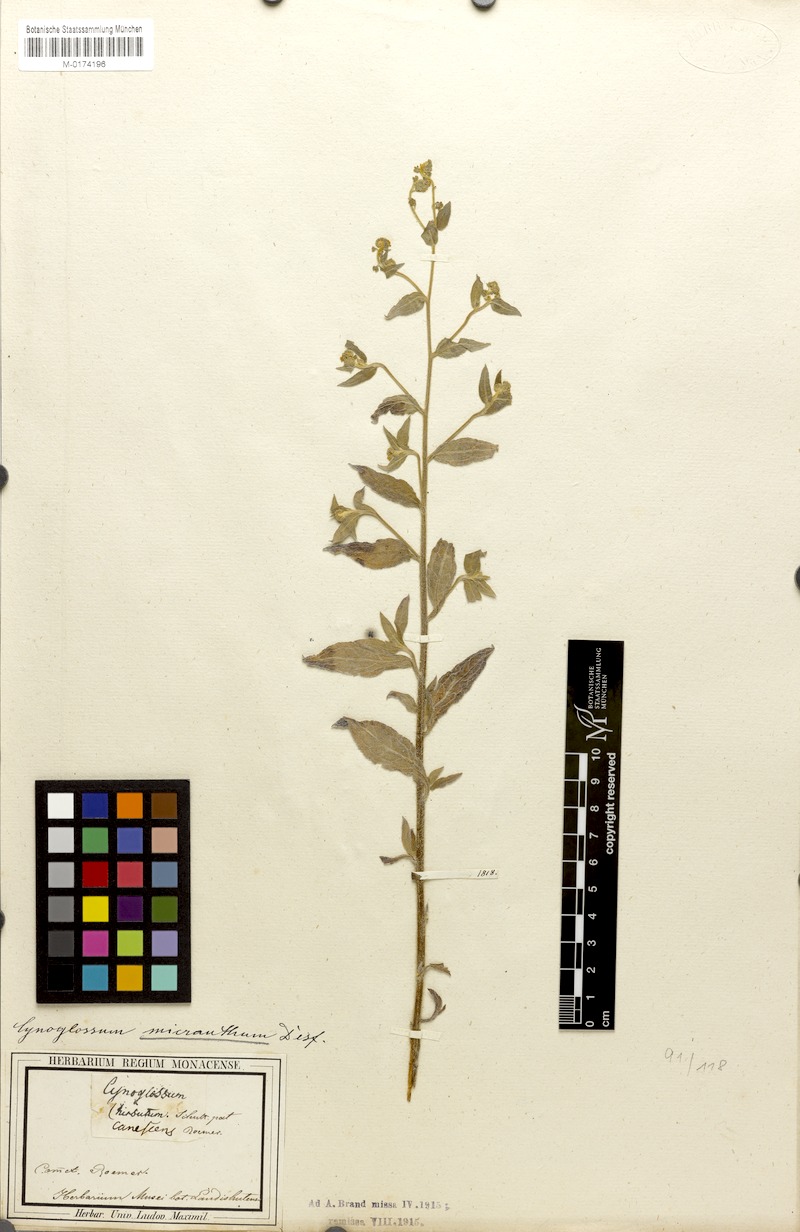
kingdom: Plantae
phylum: Tracheophyta
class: Magnoliopsida
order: Boraginales
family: Boraginaceae
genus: Paracynoglossum
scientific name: Paracynoglossum lanceolatum
